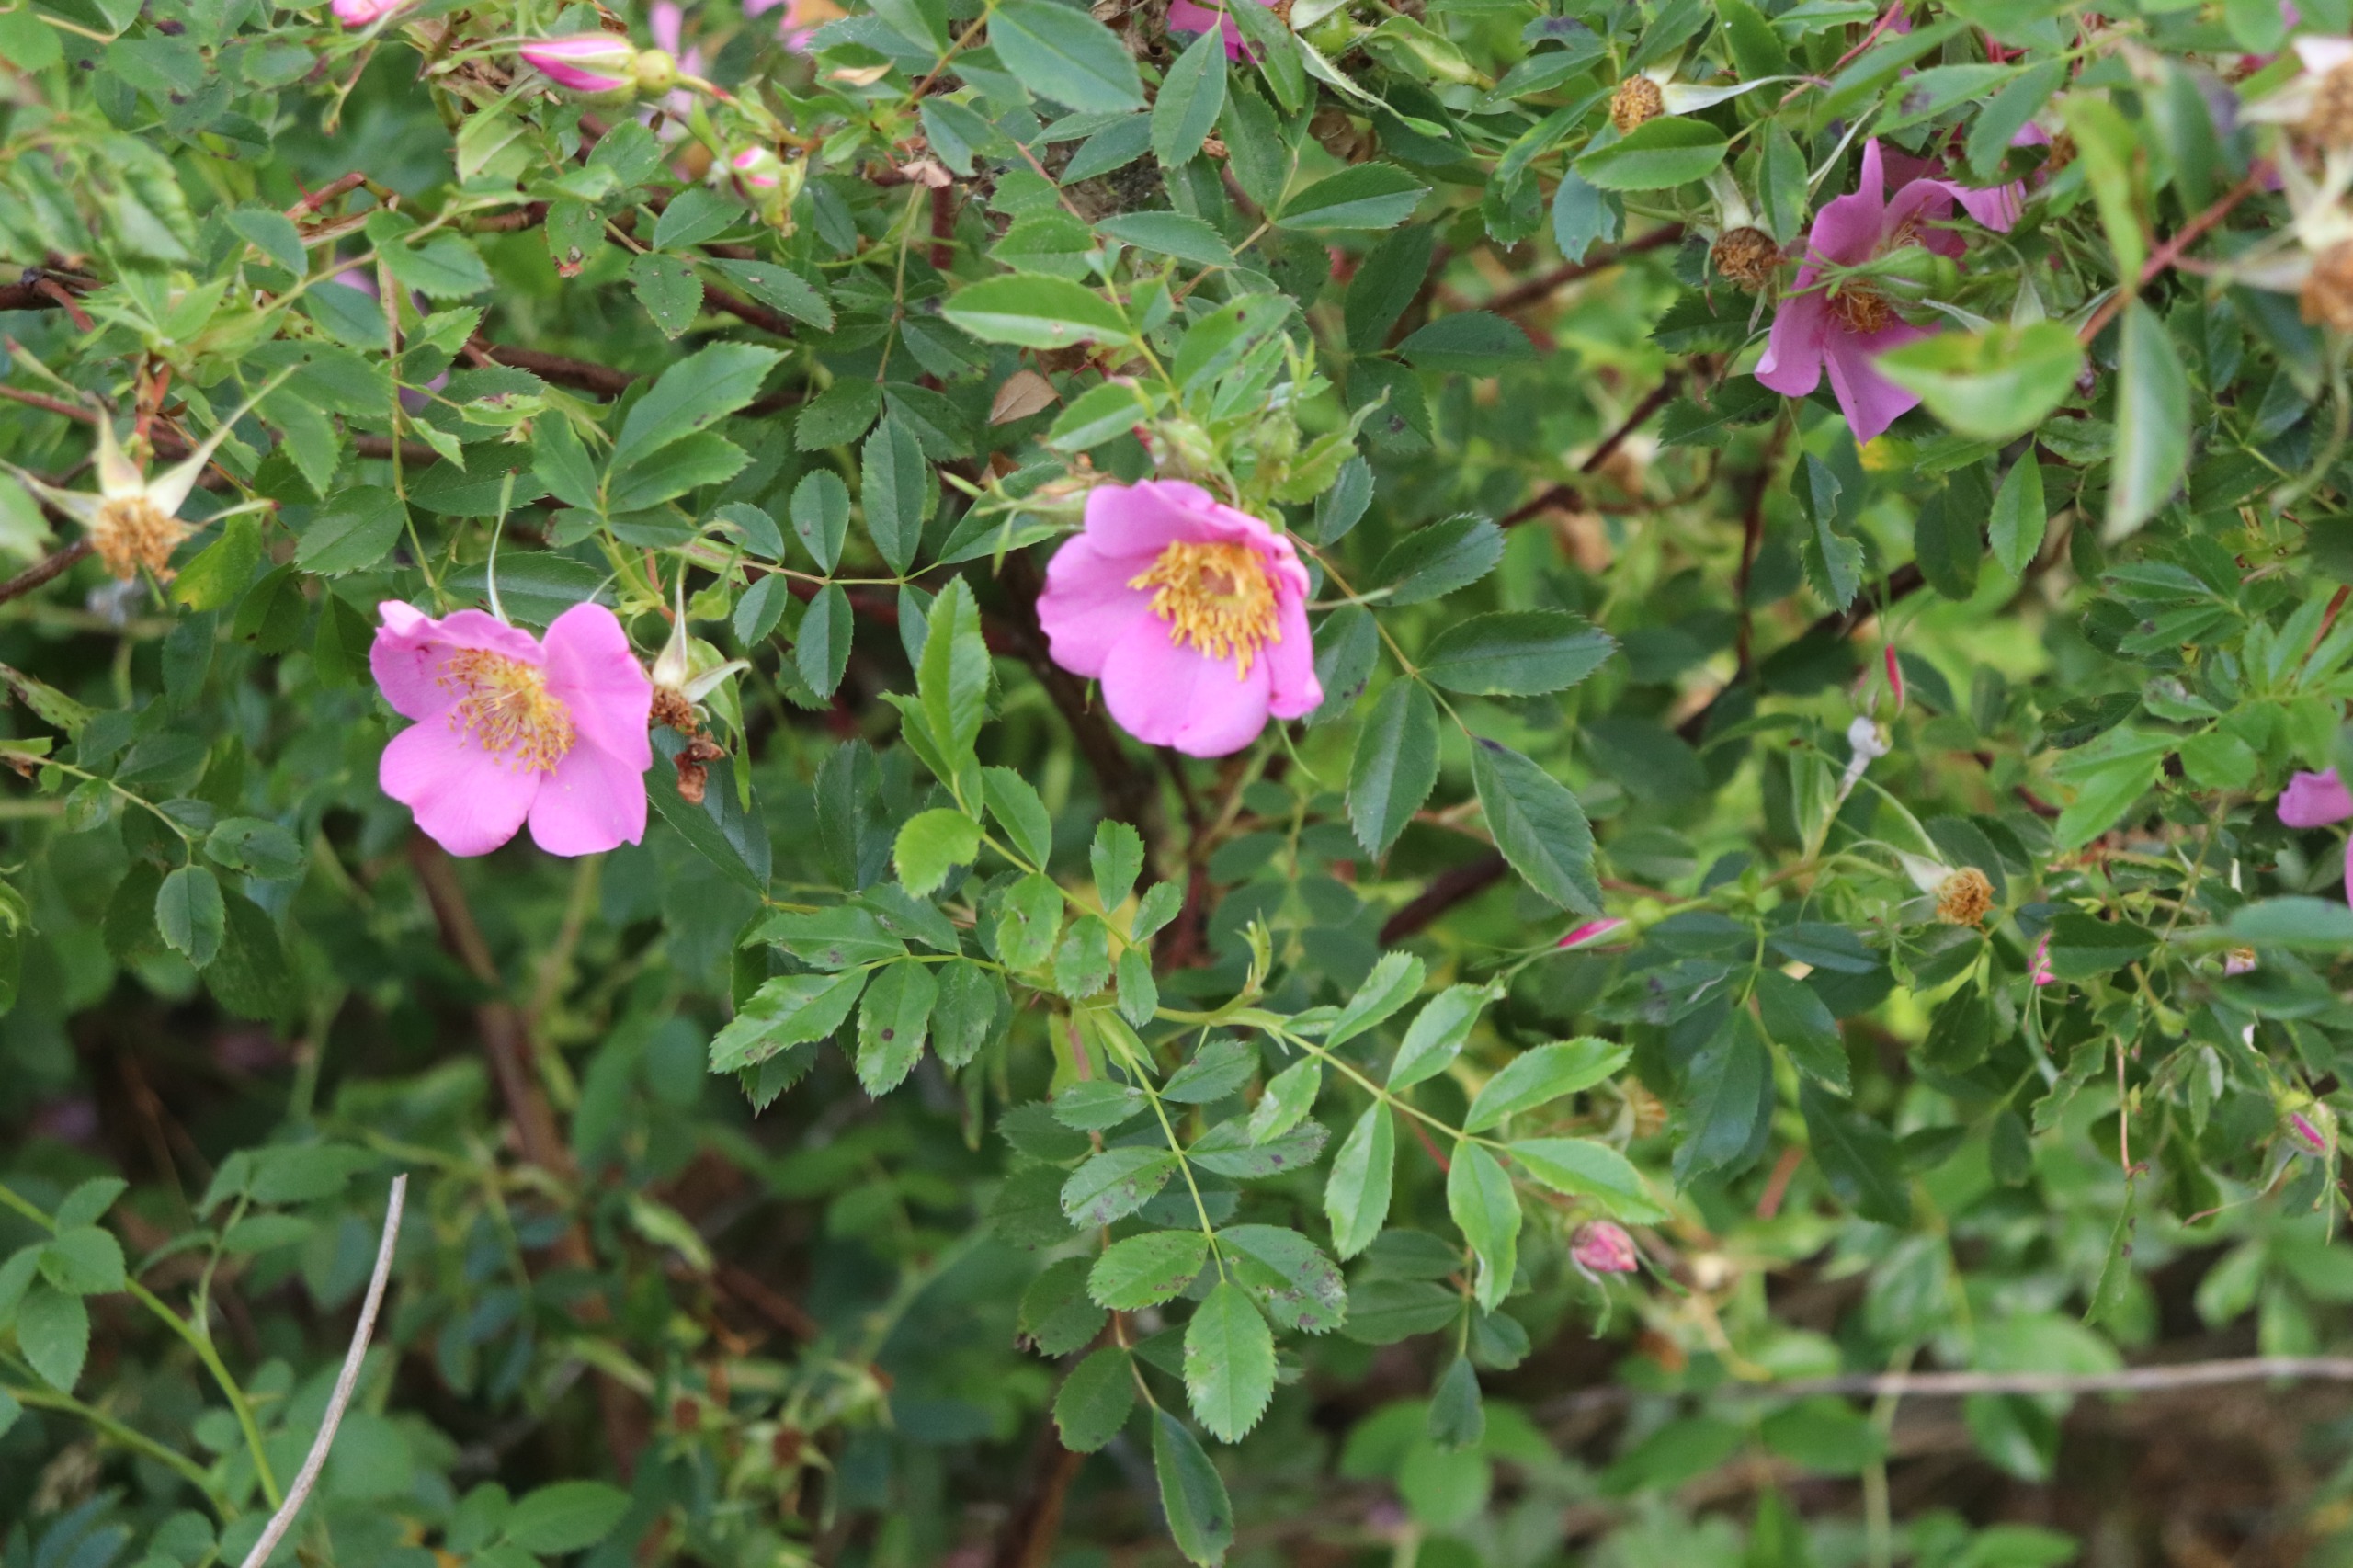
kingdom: Plantae
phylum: Tracheophyta
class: Magnoliopsida
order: Rosales
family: Rosaceae
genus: Rosa
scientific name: Rosa carolina
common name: Glansbladet rose
